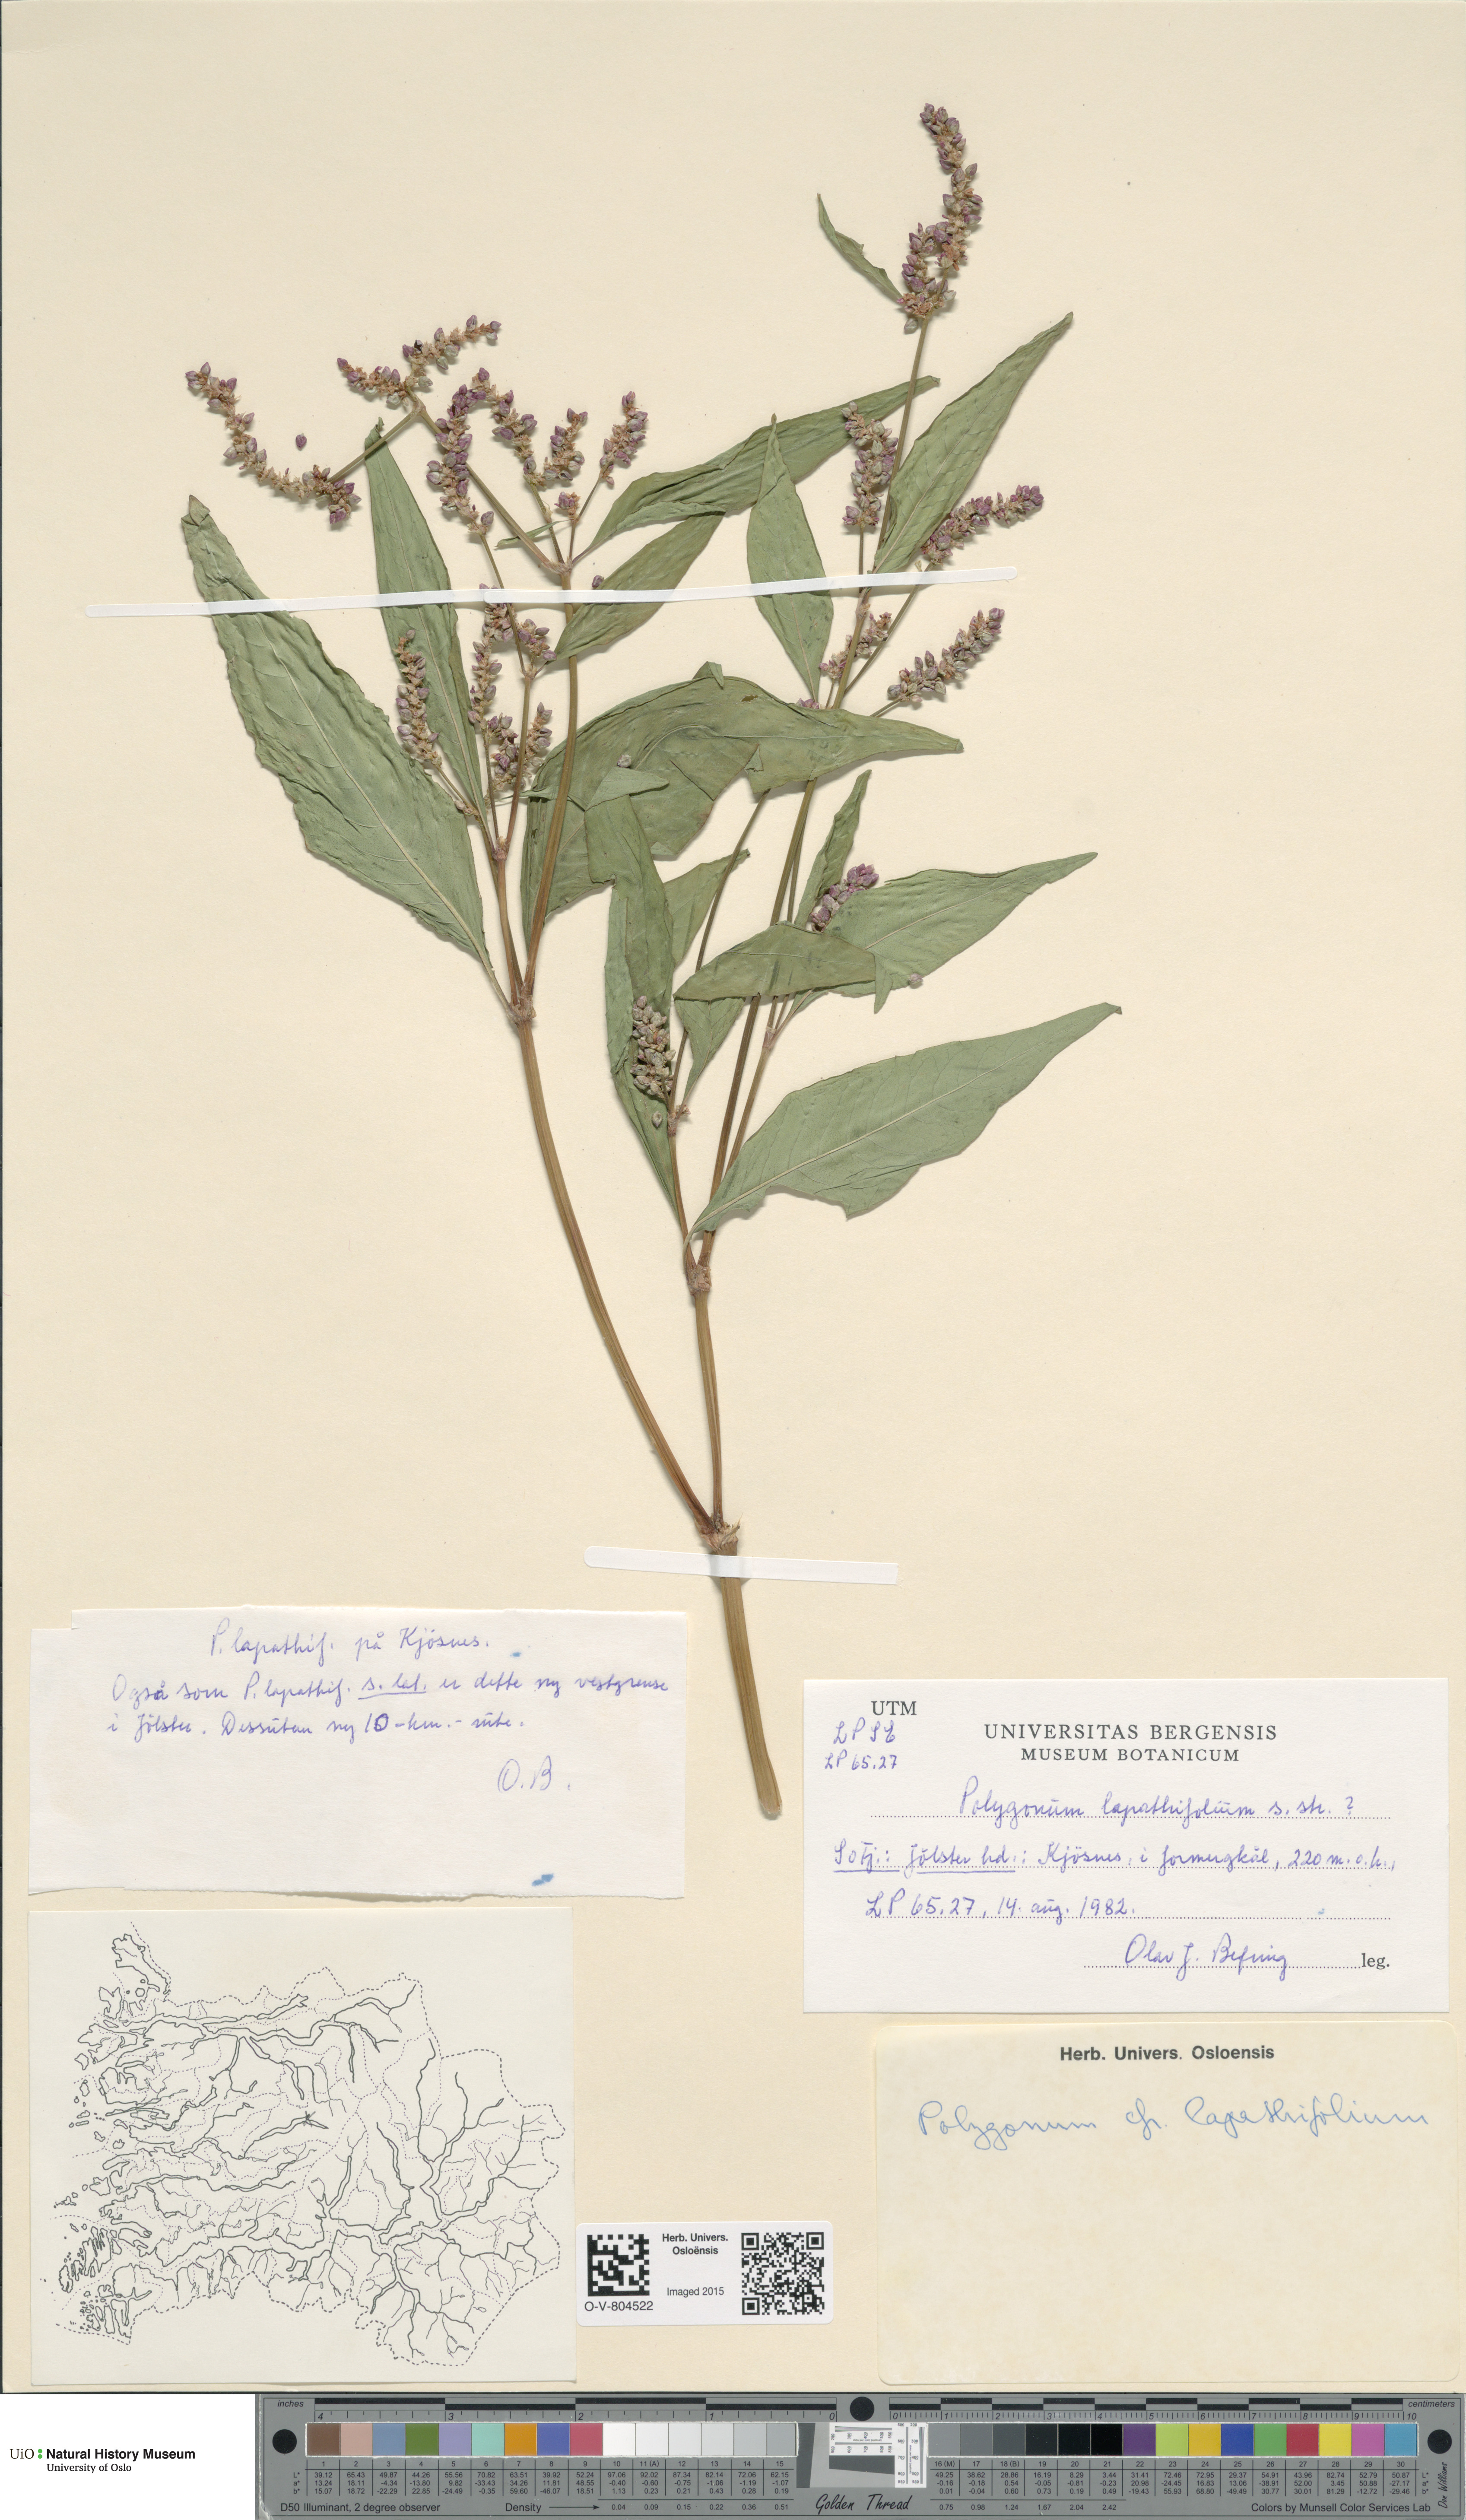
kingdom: Plantae
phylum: Tracheophyta
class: Magnoliopsida
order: Caryophyllales
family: Polygonaceae
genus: Persicaria
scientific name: Persicaria lapathifolia
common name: Curlytop knotweed
